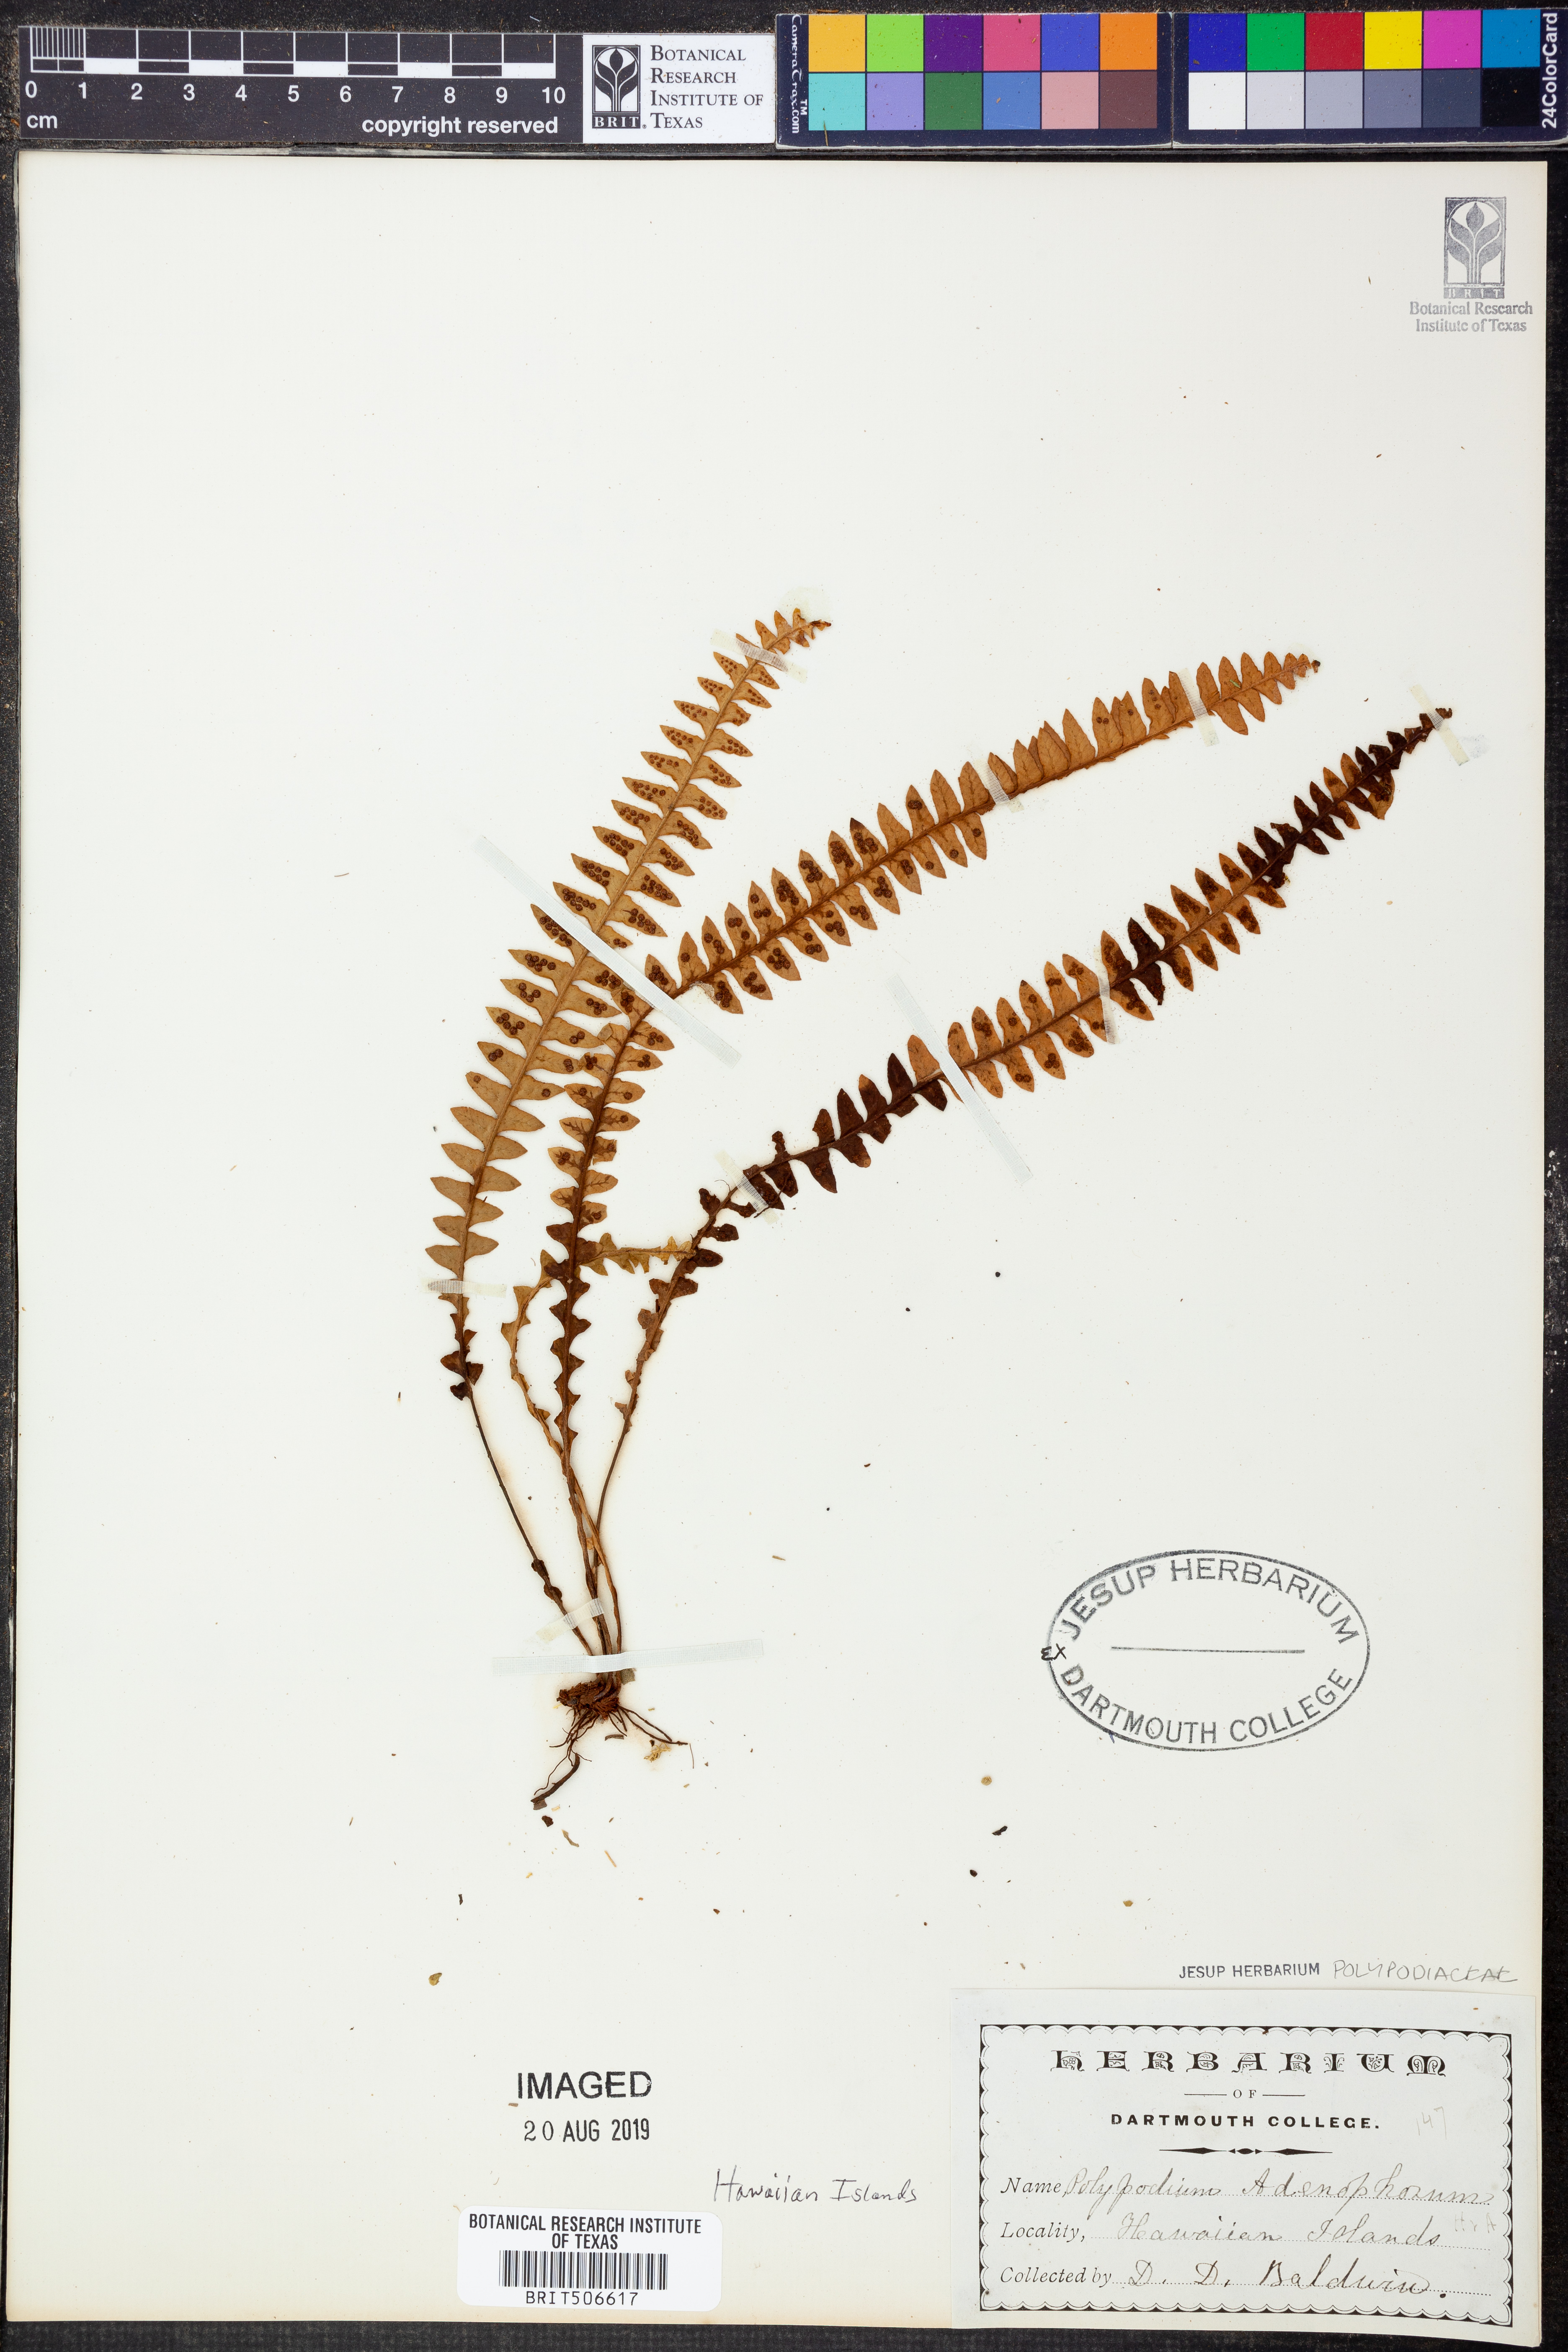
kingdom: Plantae
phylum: Tracheophyta
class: Polypodiopsida
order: Polypodiales
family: Polypodiaceae
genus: Adenophorus
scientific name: Adenophorus pinnatifidus
